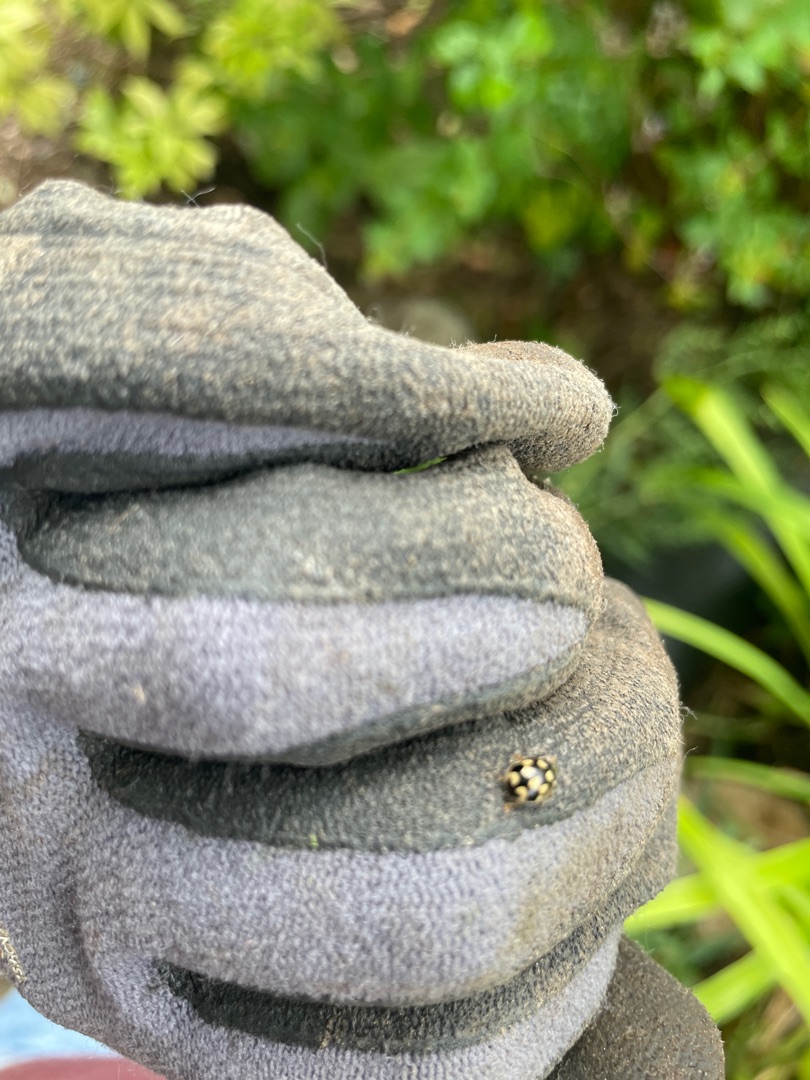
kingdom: Animalia
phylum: Arthropoda
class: Insecta
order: Coleoptera
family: Coccinellidae
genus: Propylaea
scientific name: Propylaea quatuordecimpunctata
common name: Skakbræt
